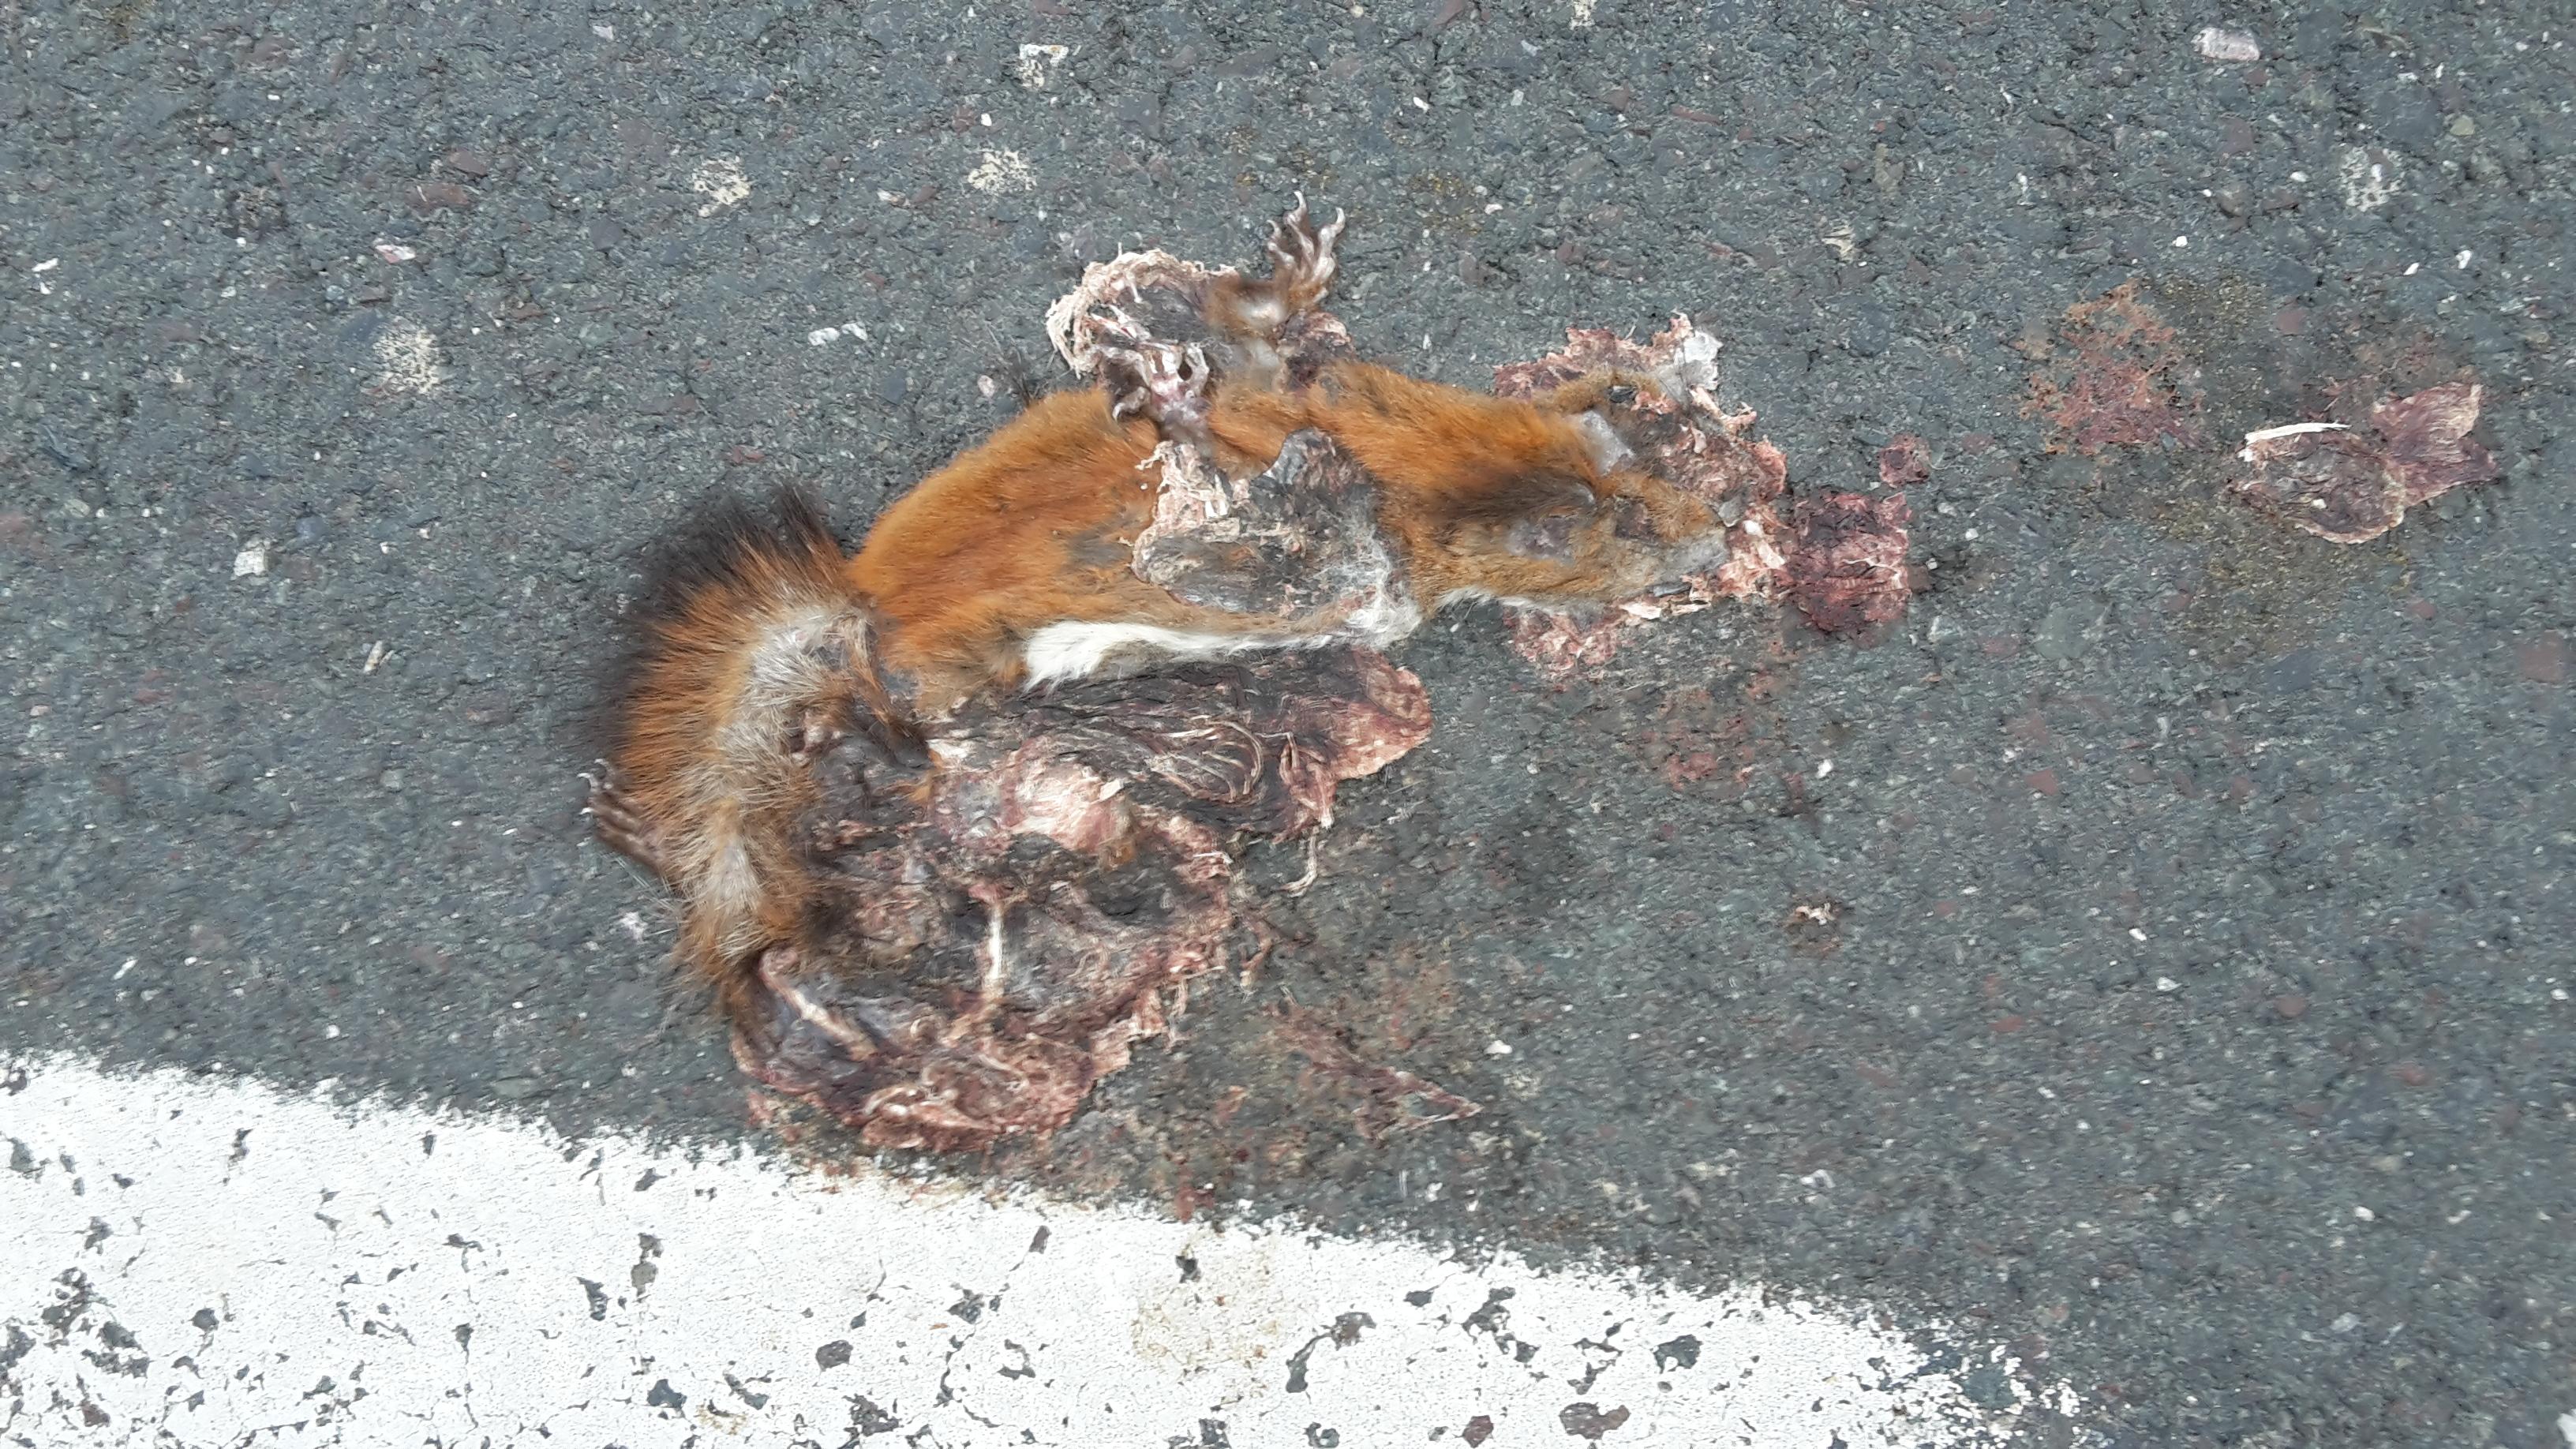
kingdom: Animalia
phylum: Chordata
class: Mammalia
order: Rodentia
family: Sciuridae
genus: Sciurus
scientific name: Sciurus vulgaris
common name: Eurasian red squirrel
